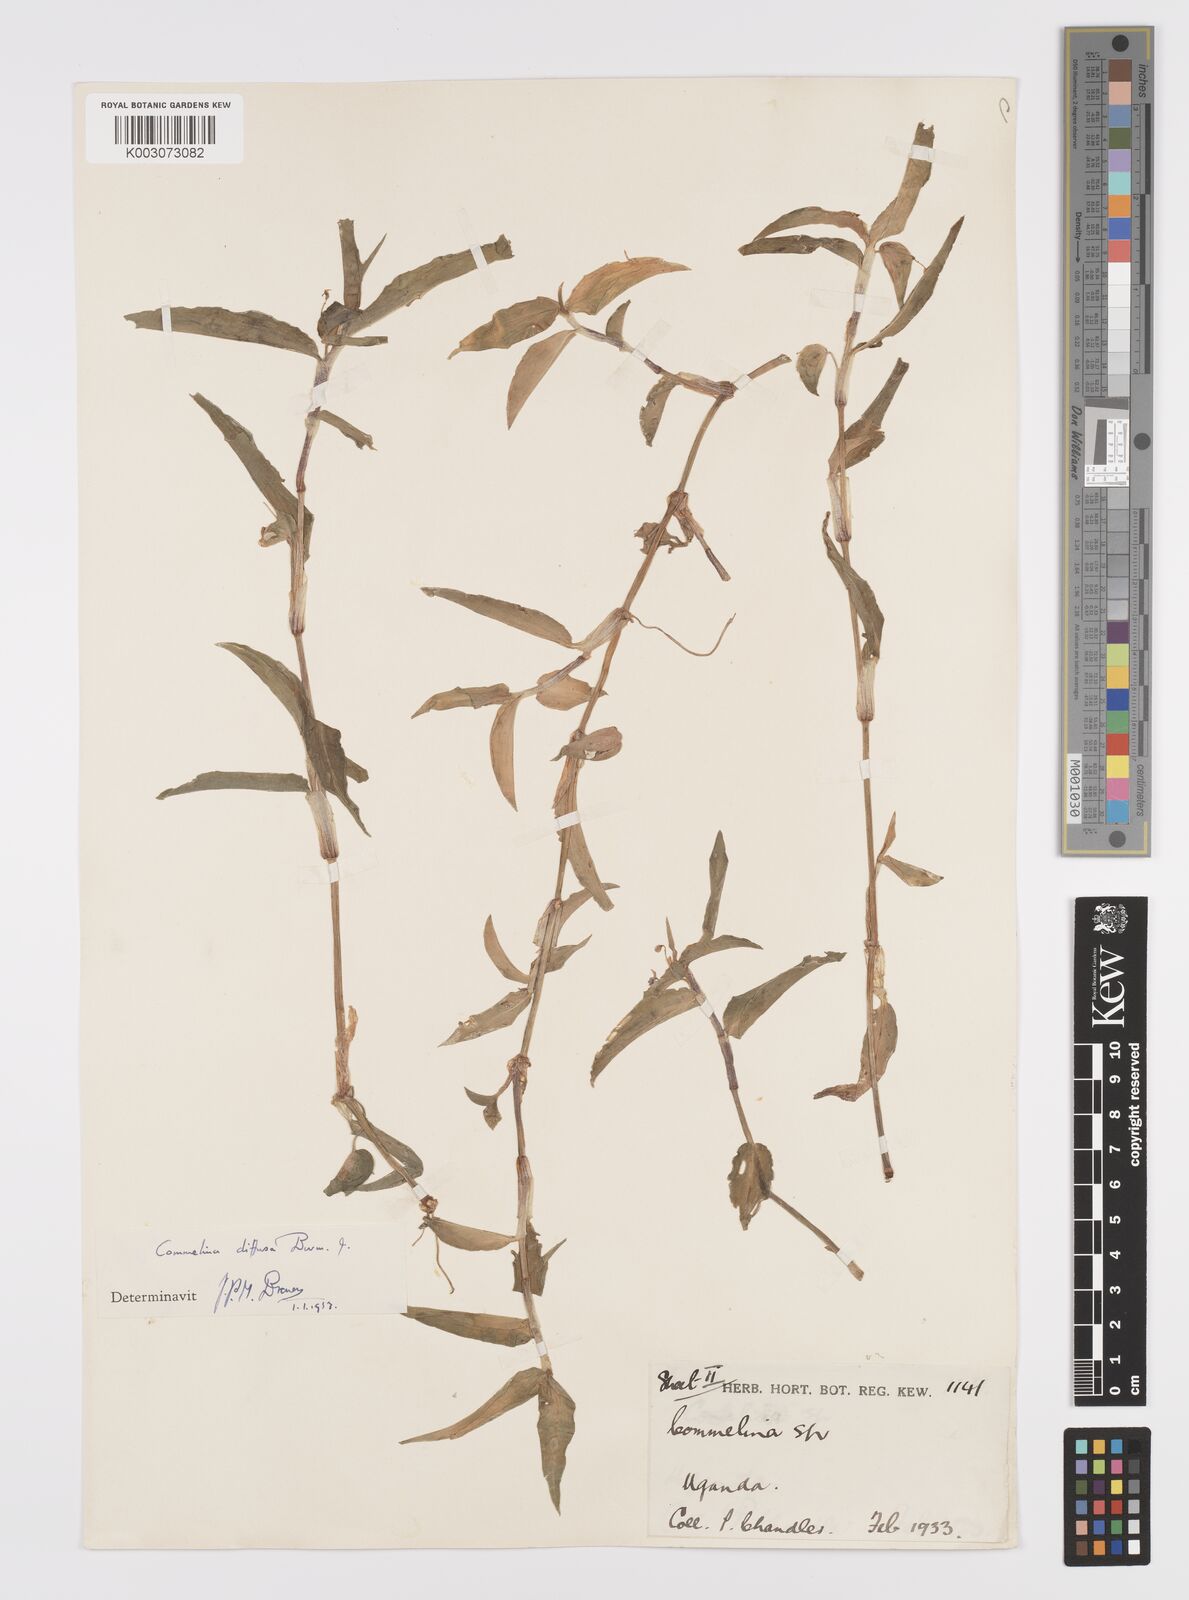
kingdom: Plantae
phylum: Tracheophyta
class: Liliopsida
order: Commelinales
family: Commelinaceae
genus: Commelina
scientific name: Commelina diffusa
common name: Climbing dayflower
